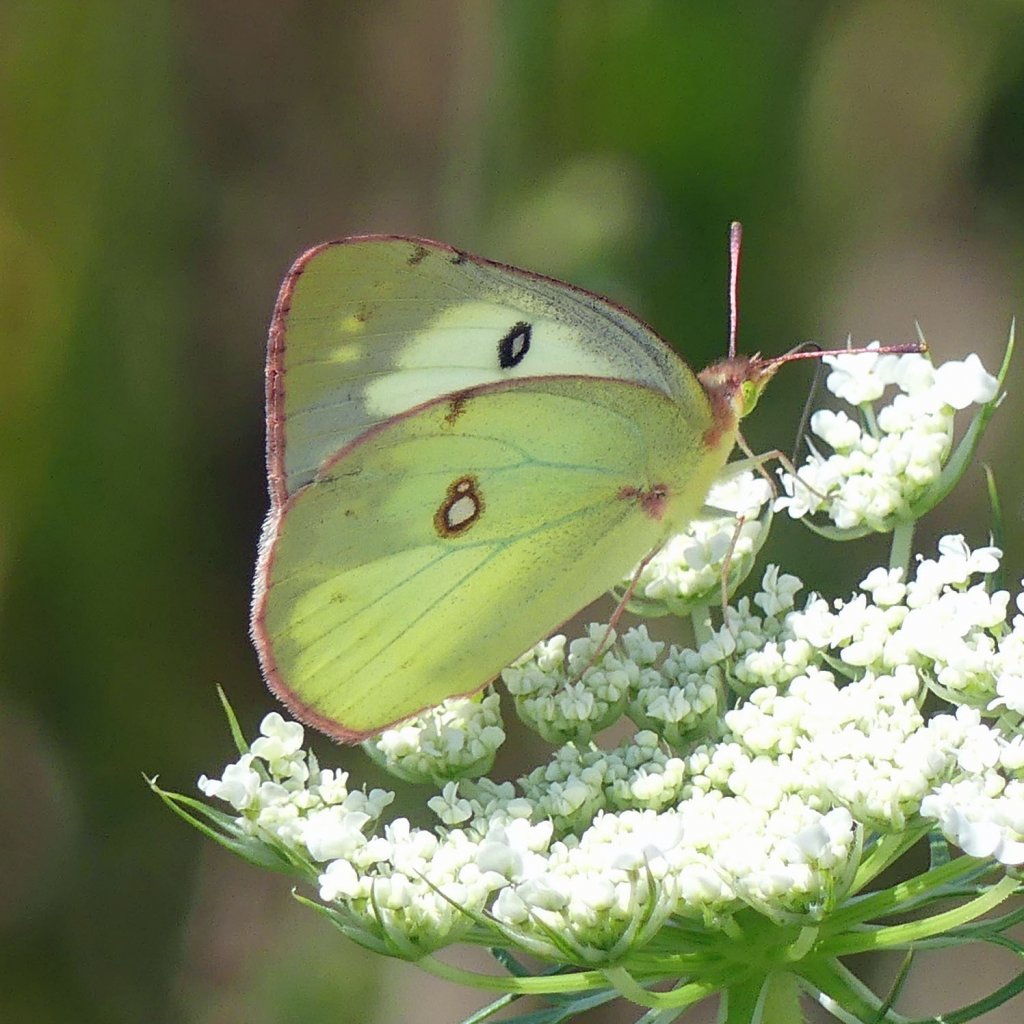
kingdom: Animalia
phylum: Arthropoda
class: Insecta
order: Lepidoptera
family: Pieridae
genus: Colias
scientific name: Colias philodice
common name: Clouded Sulphur
